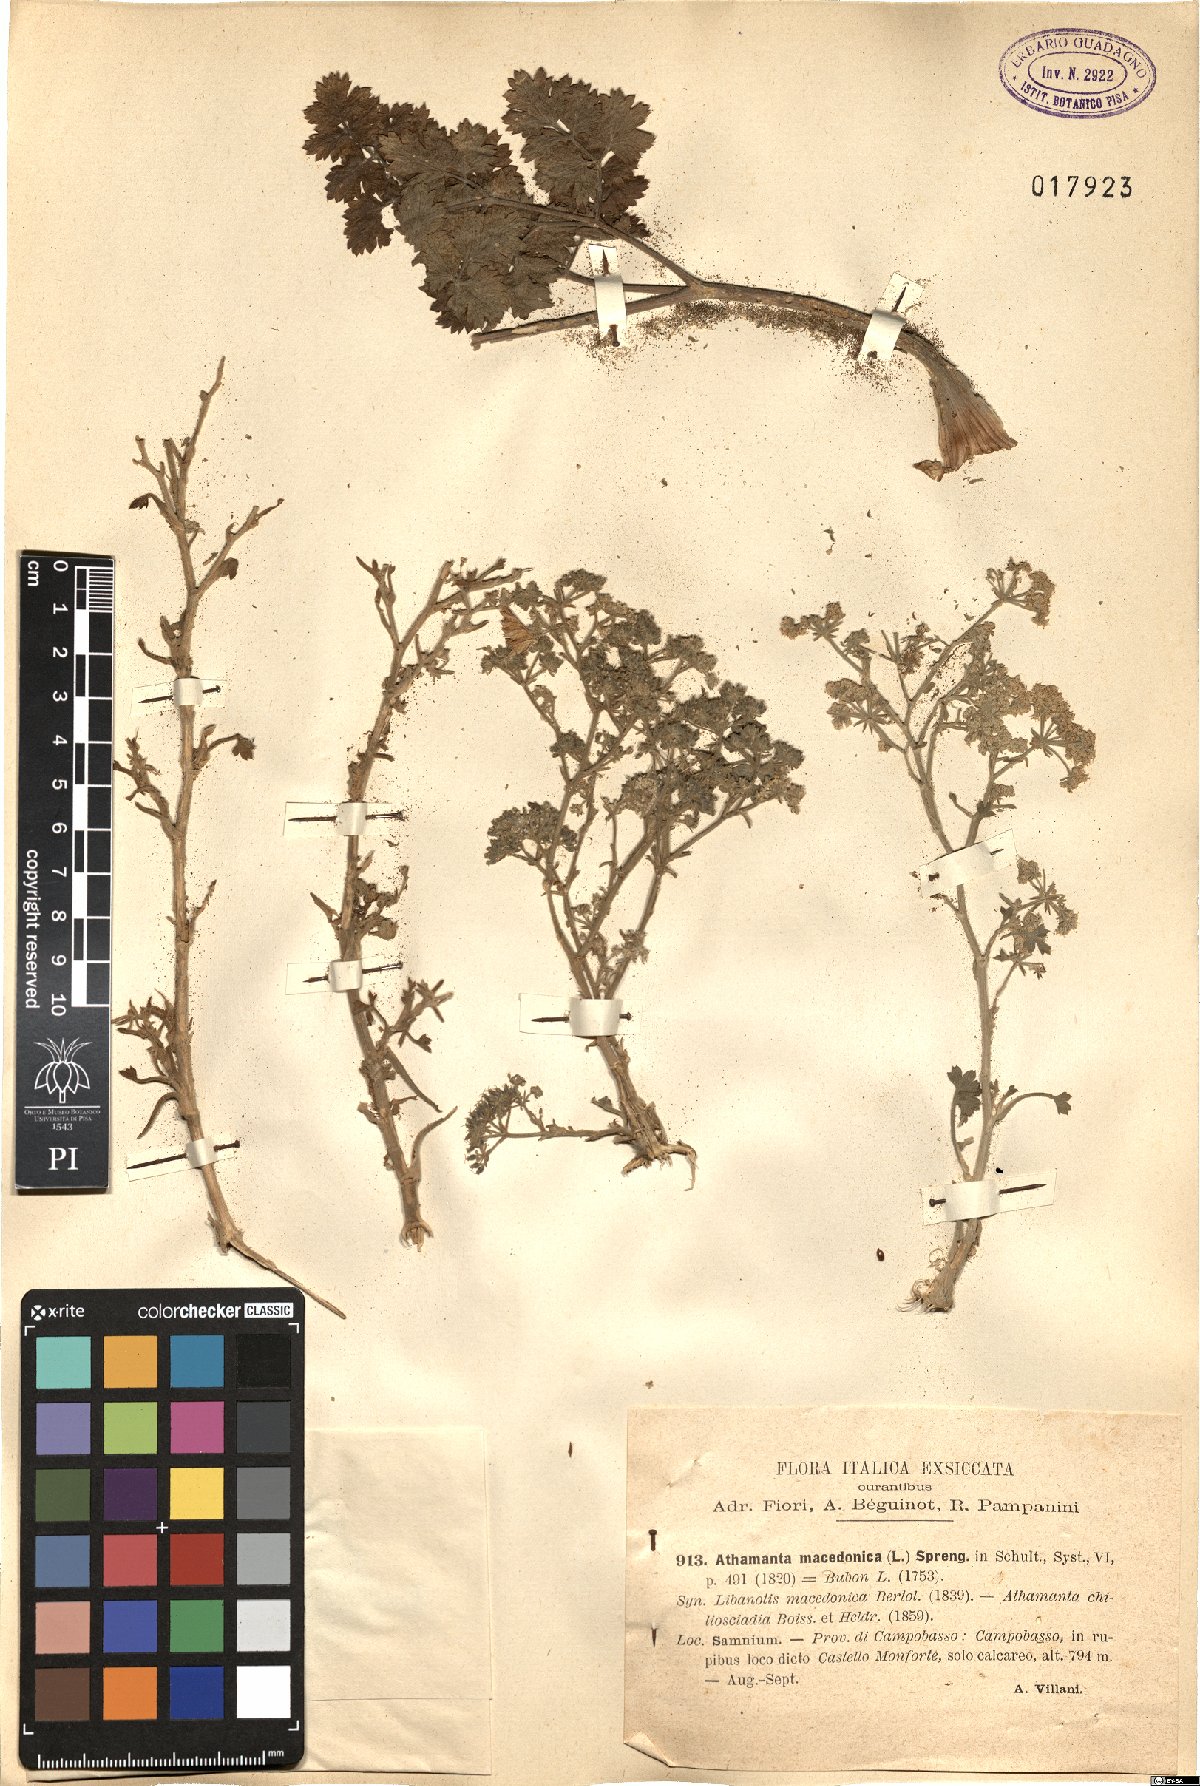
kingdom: Plantae
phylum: Tracheophyta
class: Magnoliopsida
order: Apiales
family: Apiaceae
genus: Bubon
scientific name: Bubon macedonicum
